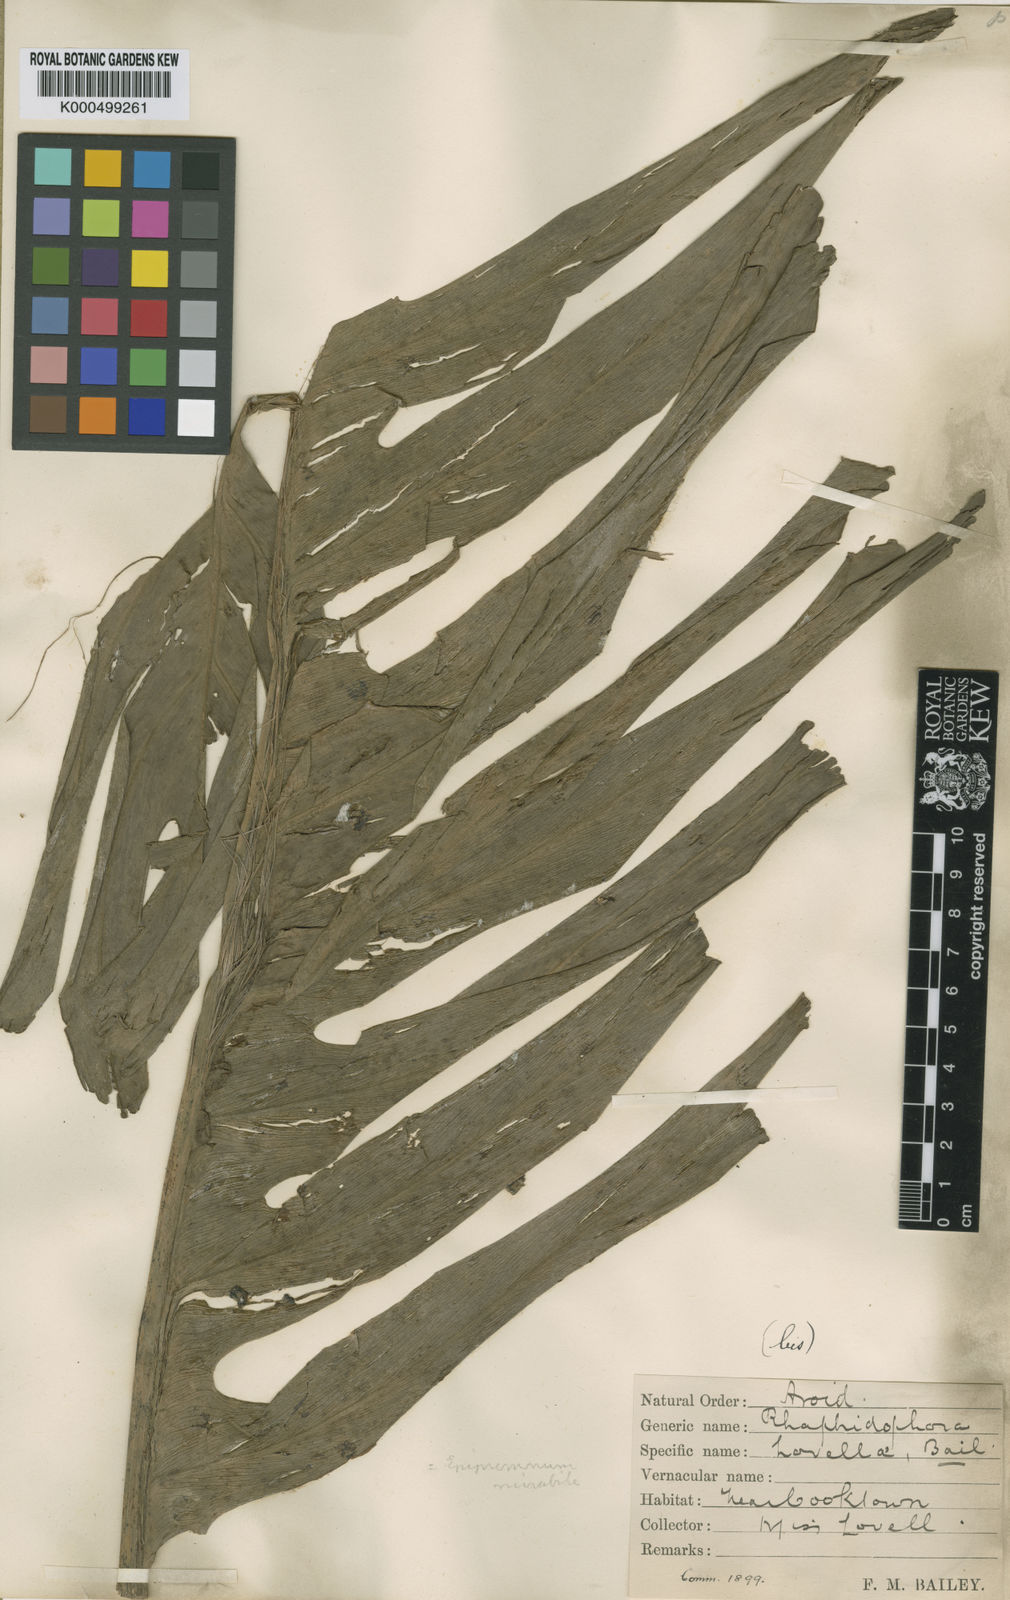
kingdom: Plantae
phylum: Tracheophyta
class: Liliopsida
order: Alismatales
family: Araceae
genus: Epipremnum
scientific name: Epipremnum pinnatum
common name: Centipede tongavine
